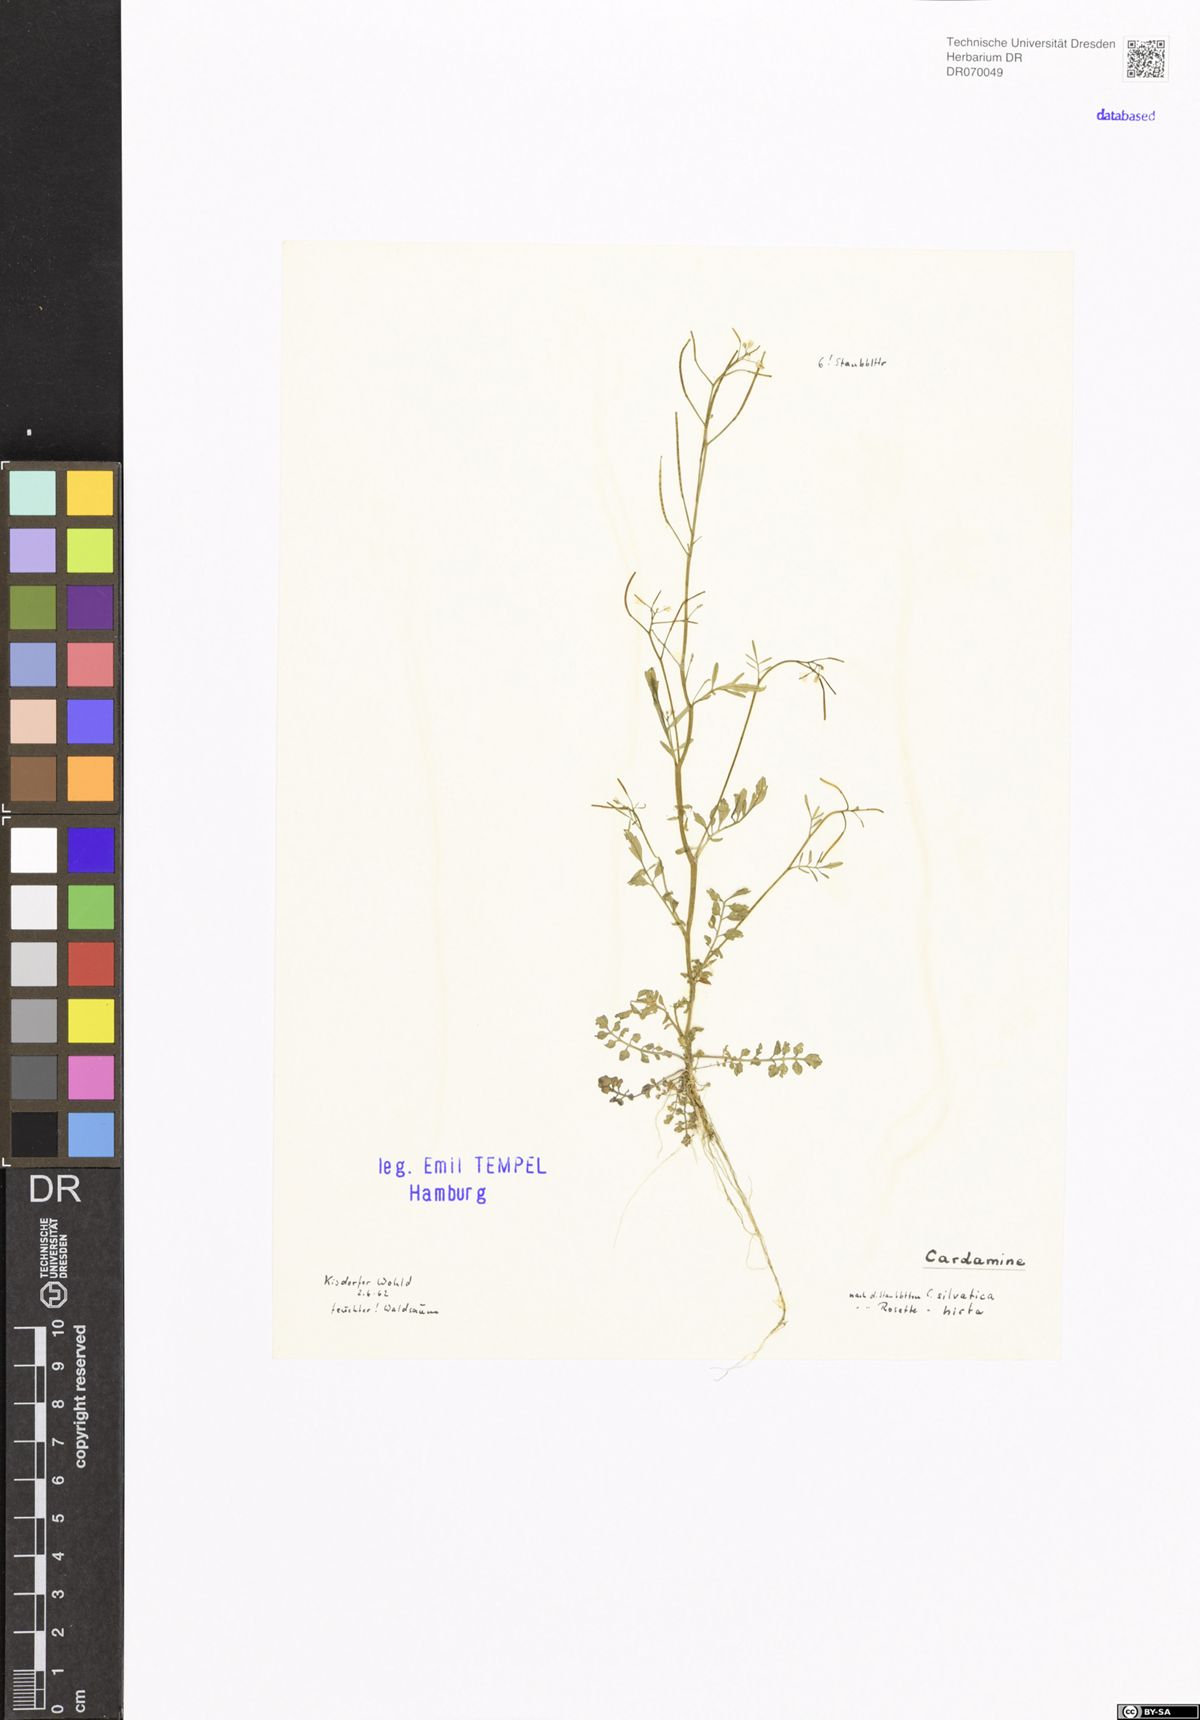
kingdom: Plantae
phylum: Tracheophyta
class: Magnoliopsida
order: Brassicales
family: Brassicaceae
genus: Cardamine
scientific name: Cardamine
